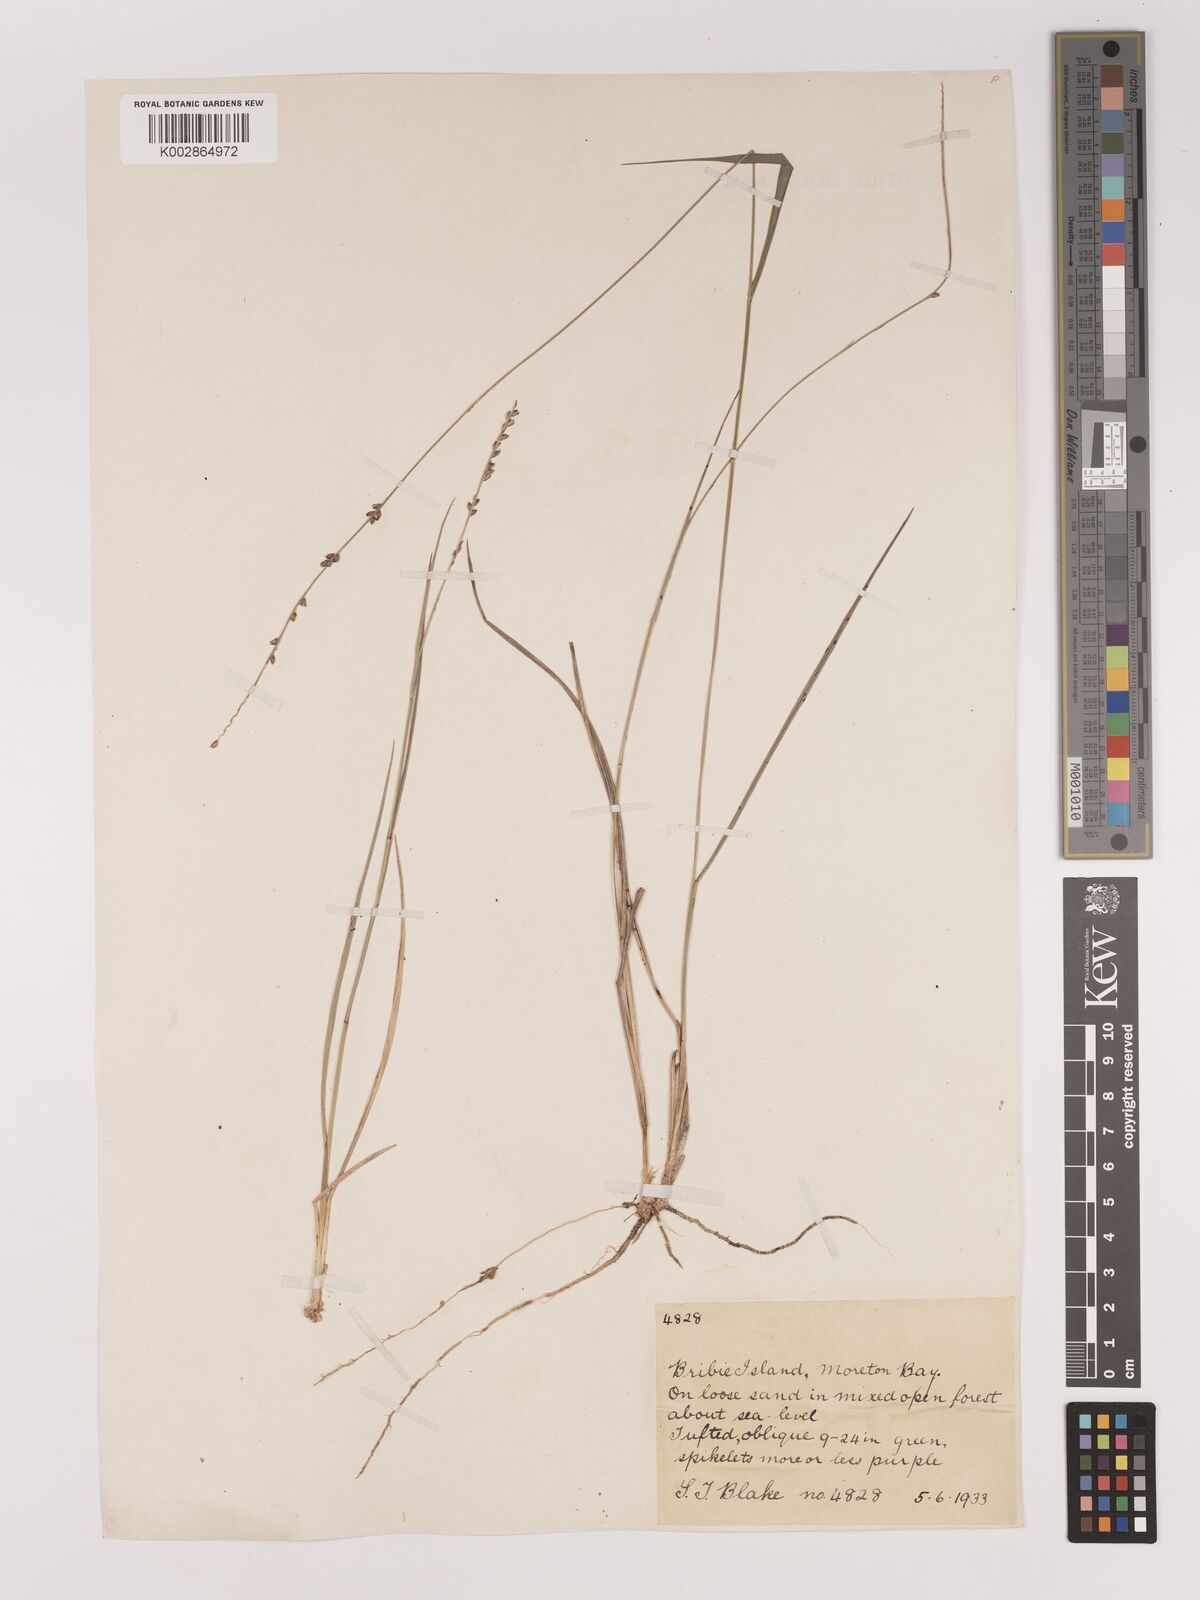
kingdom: Plantae
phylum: Tracheophyta
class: Liliopsida
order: Poales
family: Poaceae
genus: Setaria
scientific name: Setaria
